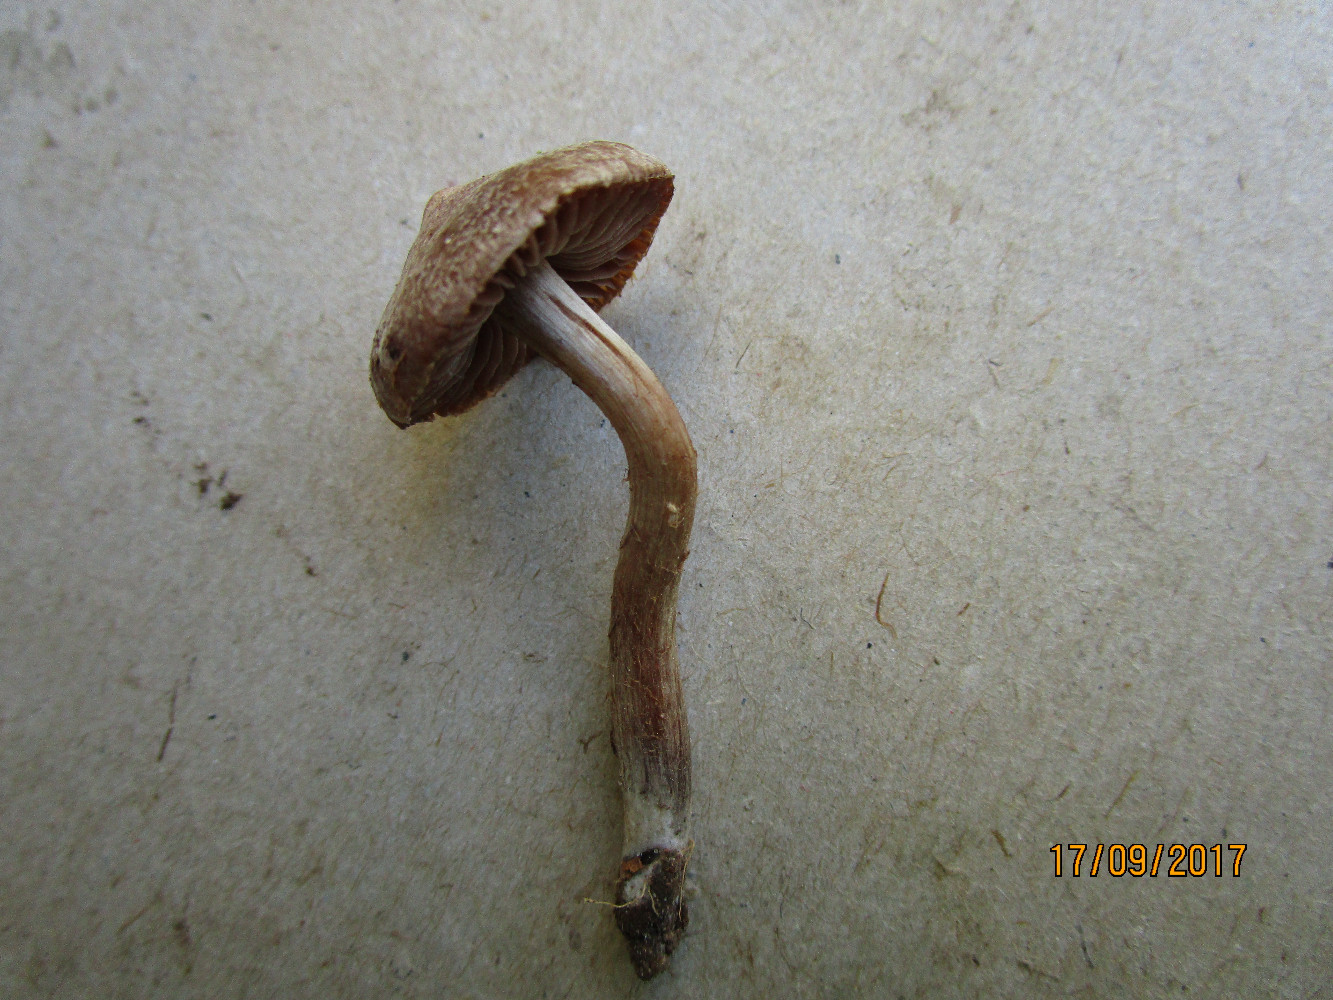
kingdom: Fungi
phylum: Basidiomycota
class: Agaricomycetes
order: Agaricales
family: Cortinariaceae
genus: Cortinarius
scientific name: Cortinarius
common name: pelargonie-slørhat
